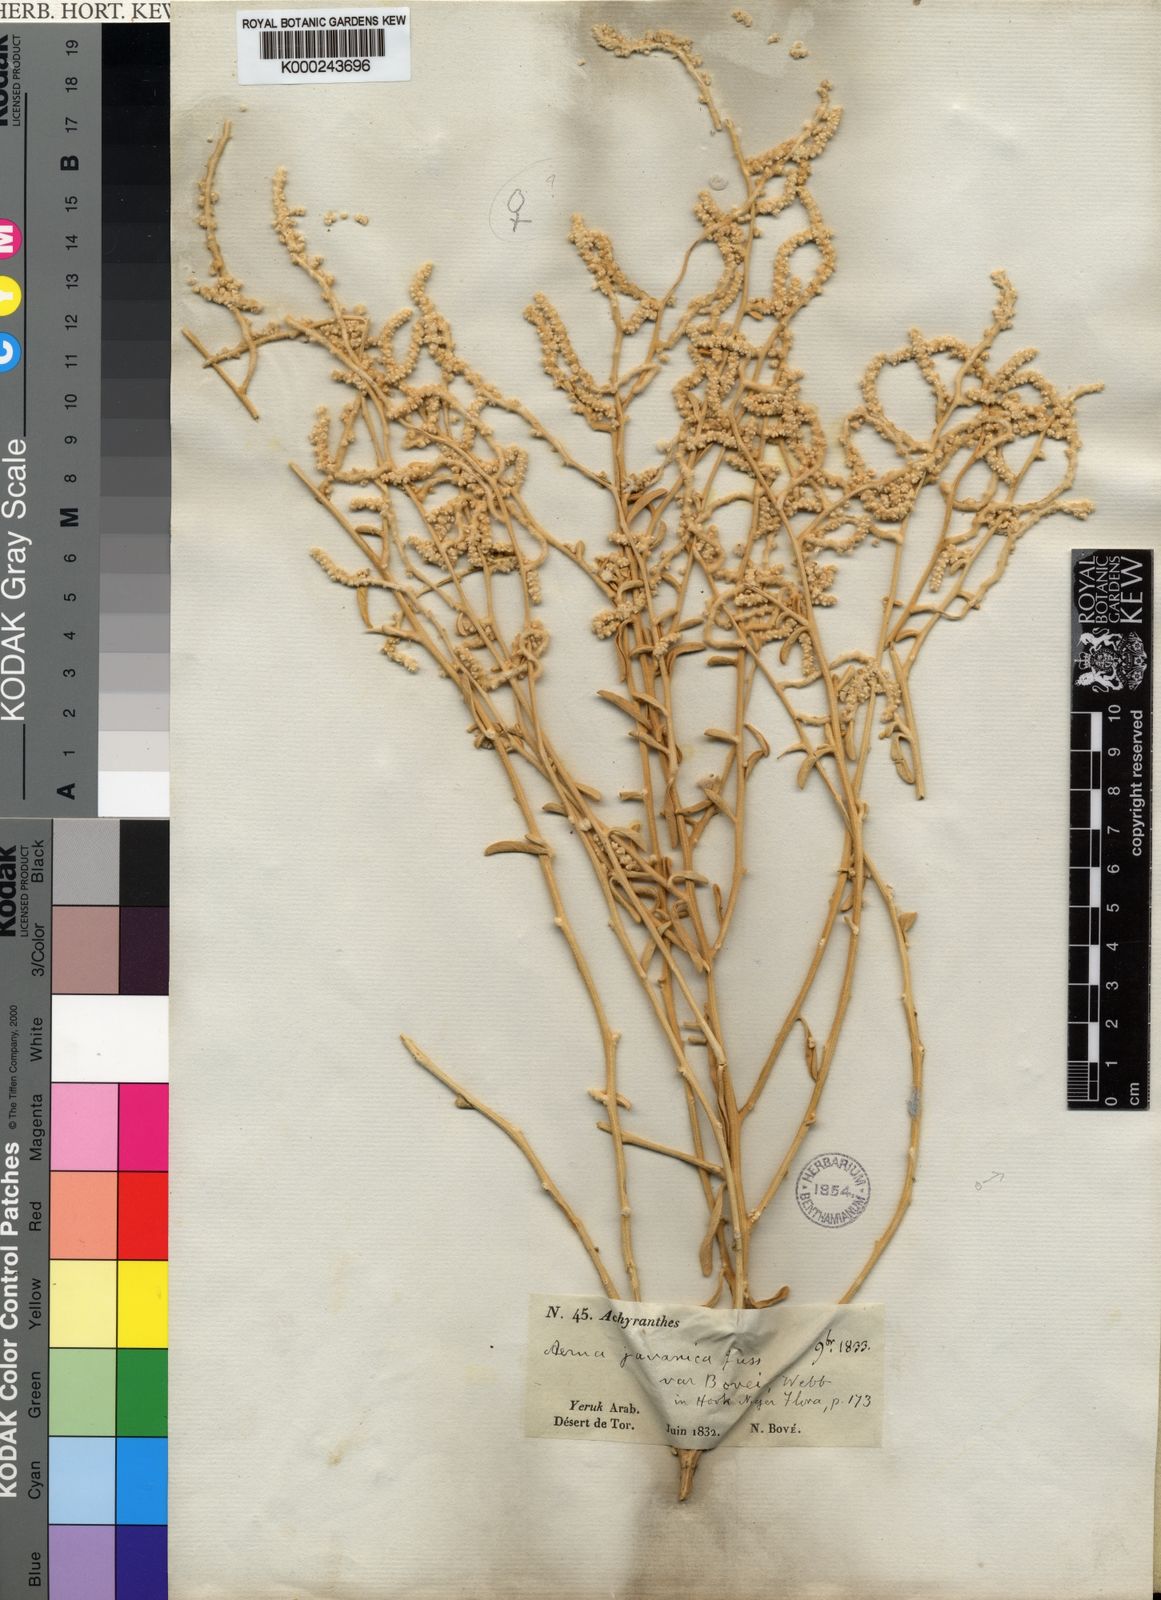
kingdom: Plantae
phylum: Tracheophyta
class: Magnoliopsida
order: Caryophyllales
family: Amaranthaceae
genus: Aerva
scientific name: Aerva javanica
